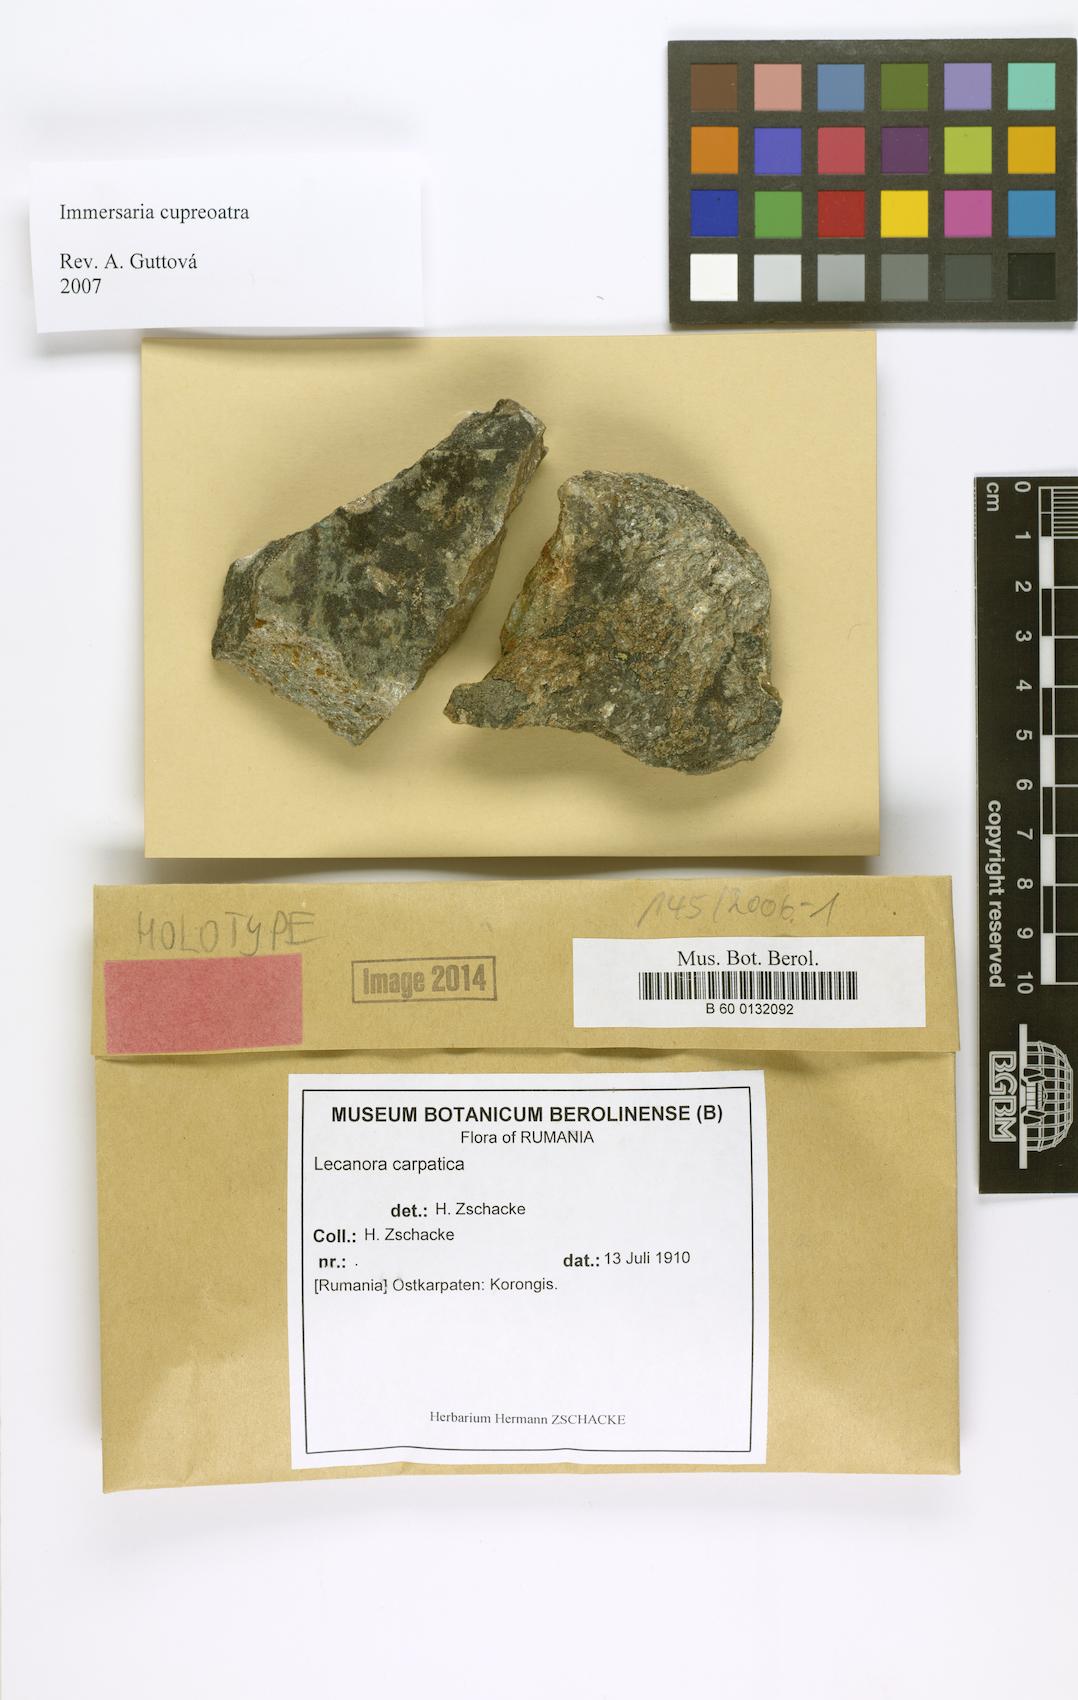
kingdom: Fungi
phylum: Ascomycota
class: Lecanoromycetes
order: Lecanorales
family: Lecanoraceae
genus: Lecanora
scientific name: Lecanora
